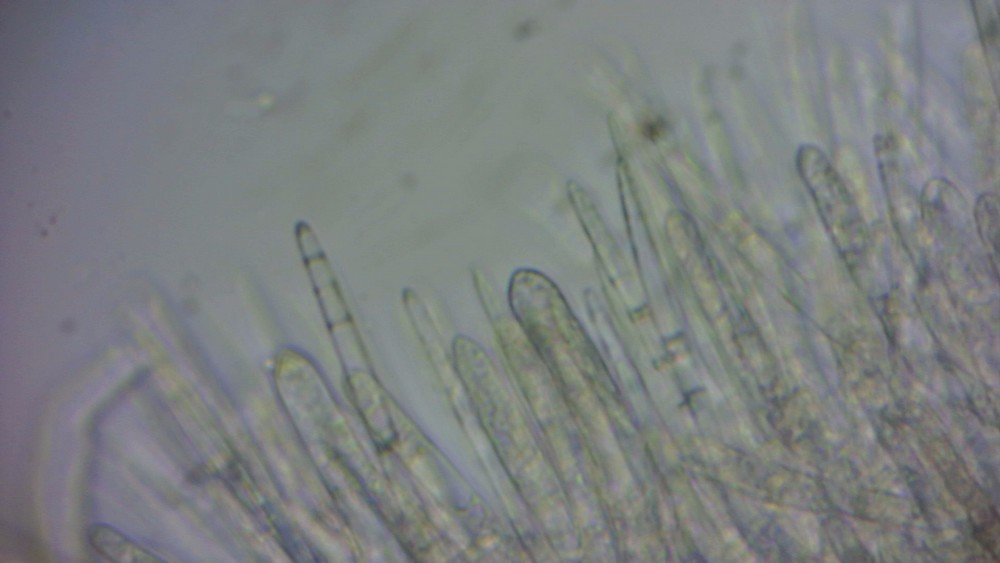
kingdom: Fungi
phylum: Ascomycota
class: Leotiomycetes
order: Helotiales
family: Lachnaceae
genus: Brunnipila
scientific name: Brunnipila palearum
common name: brunhåret frynseskive
